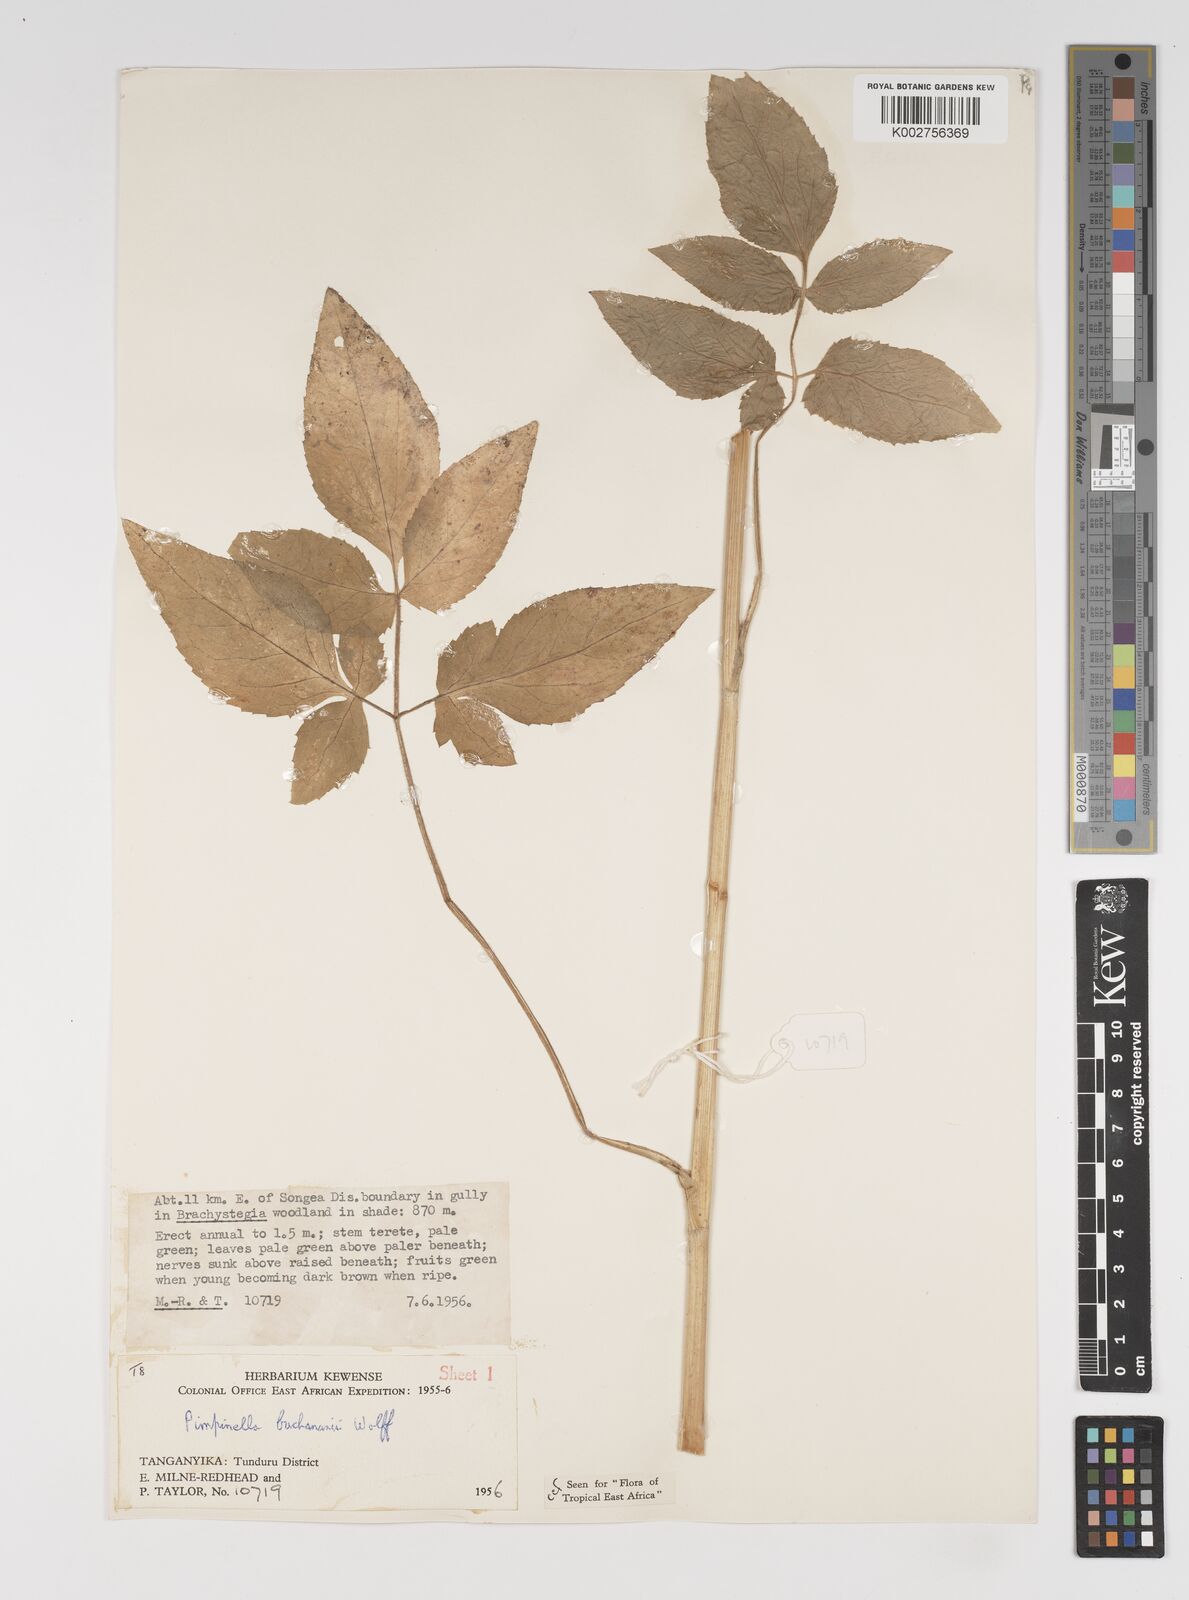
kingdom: Plantae
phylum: Tracheophyta
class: Magnoliopsida
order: Apiales
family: Apiaceae
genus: Pimpinella
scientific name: Pimpinella buchananii
